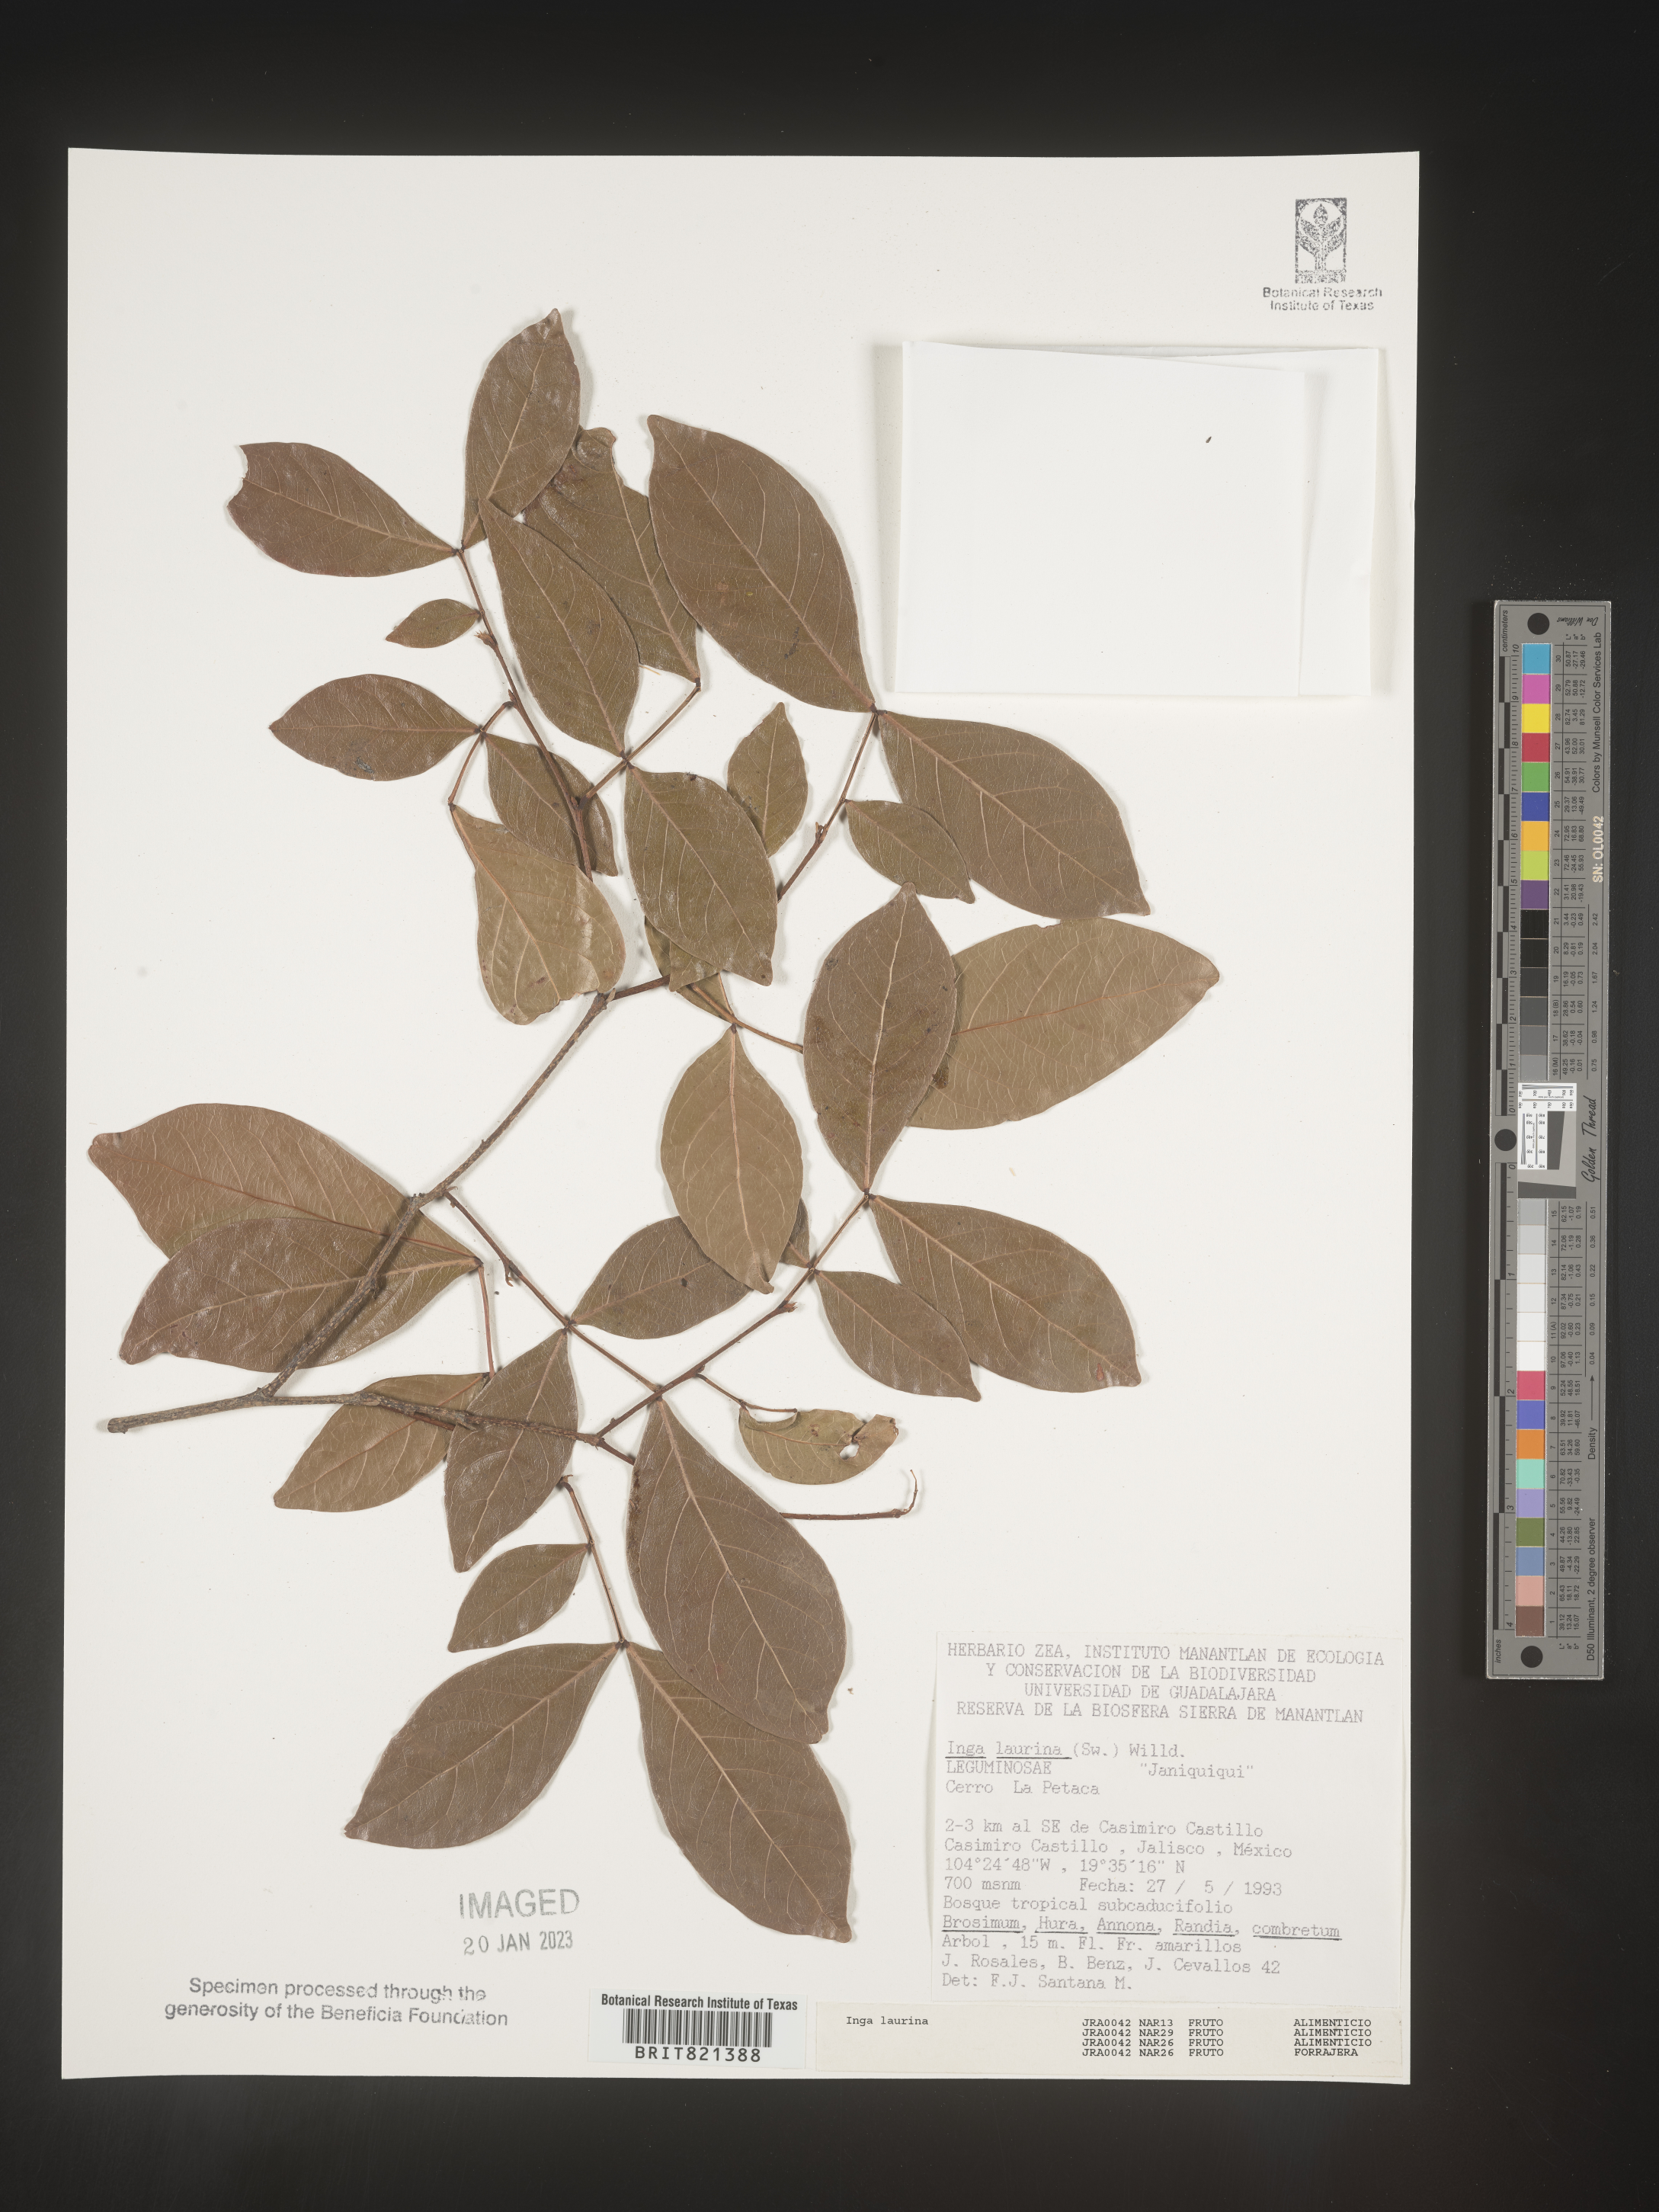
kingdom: Plantae
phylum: Tracheophyta
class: Magnoliopsida
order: Fabales
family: Fabaceae
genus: Inga
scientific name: Inga
